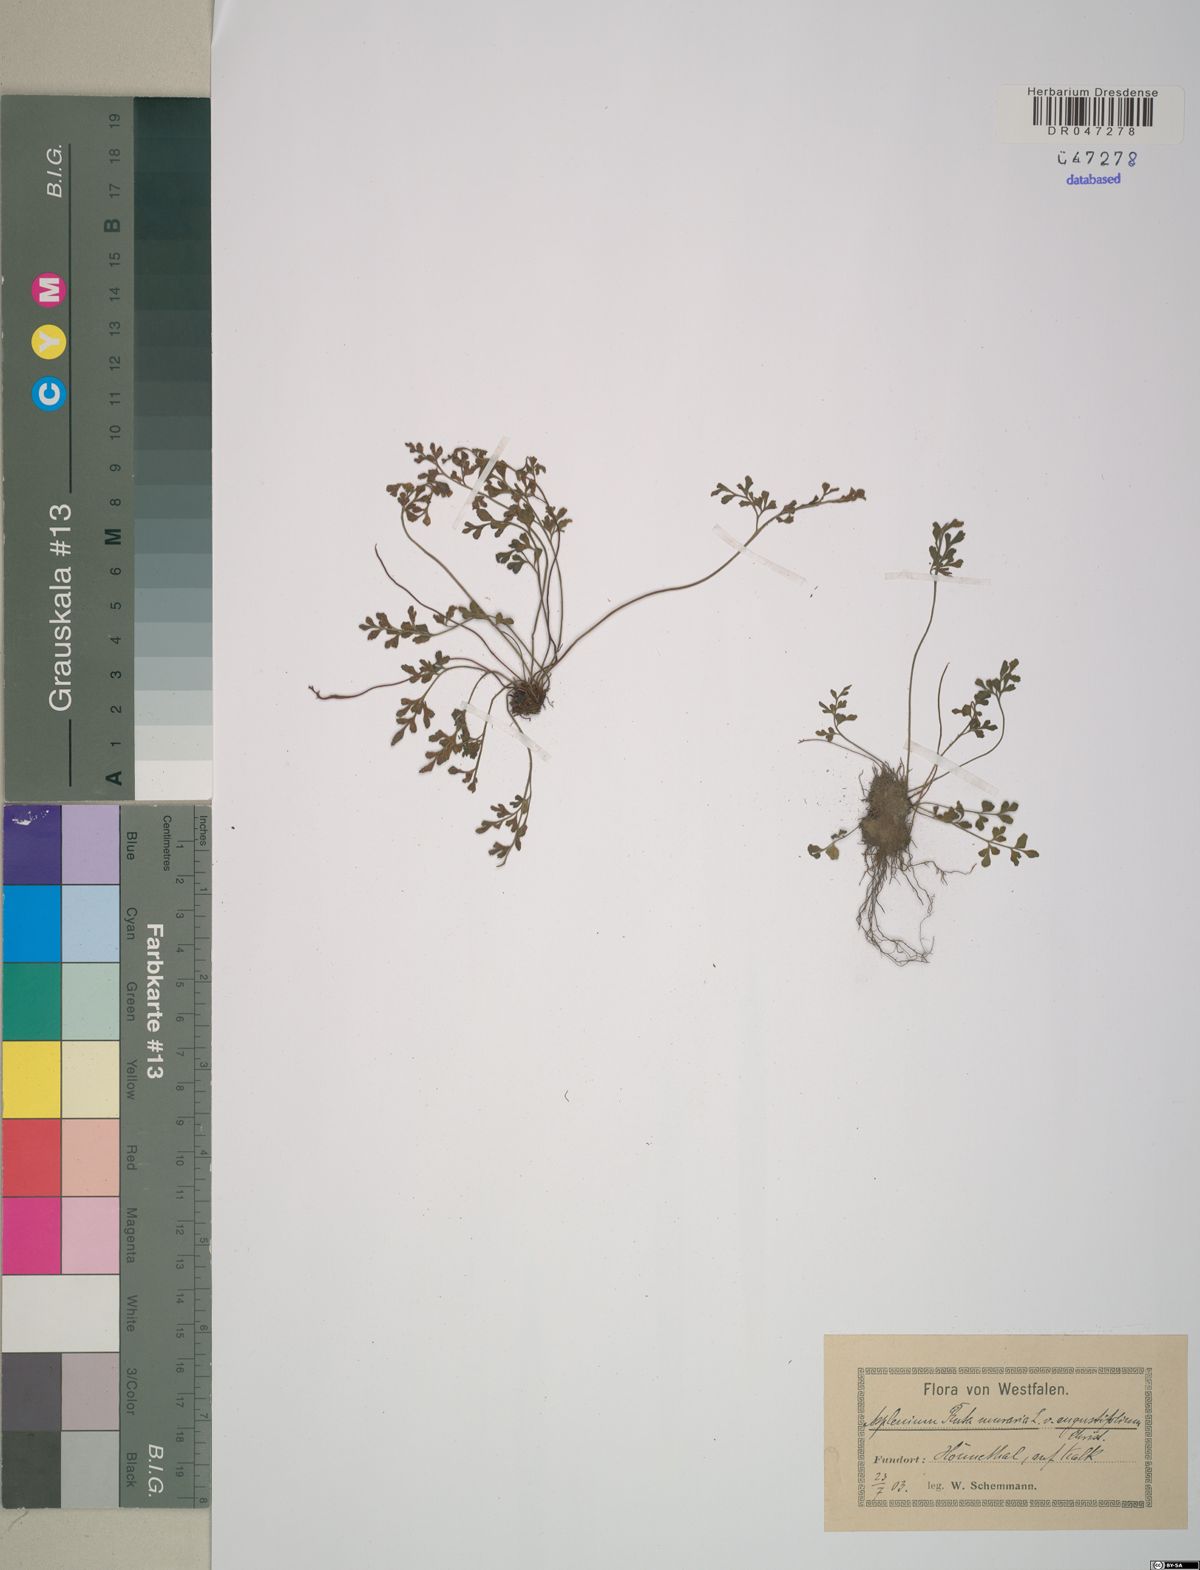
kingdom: Plantae
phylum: Tracheophyta
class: Polypodiopsida
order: Polypodiales
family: Aspleniaceae
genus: Asplenium
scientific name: Asplenium ruta-muraria
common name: Wall-rue
